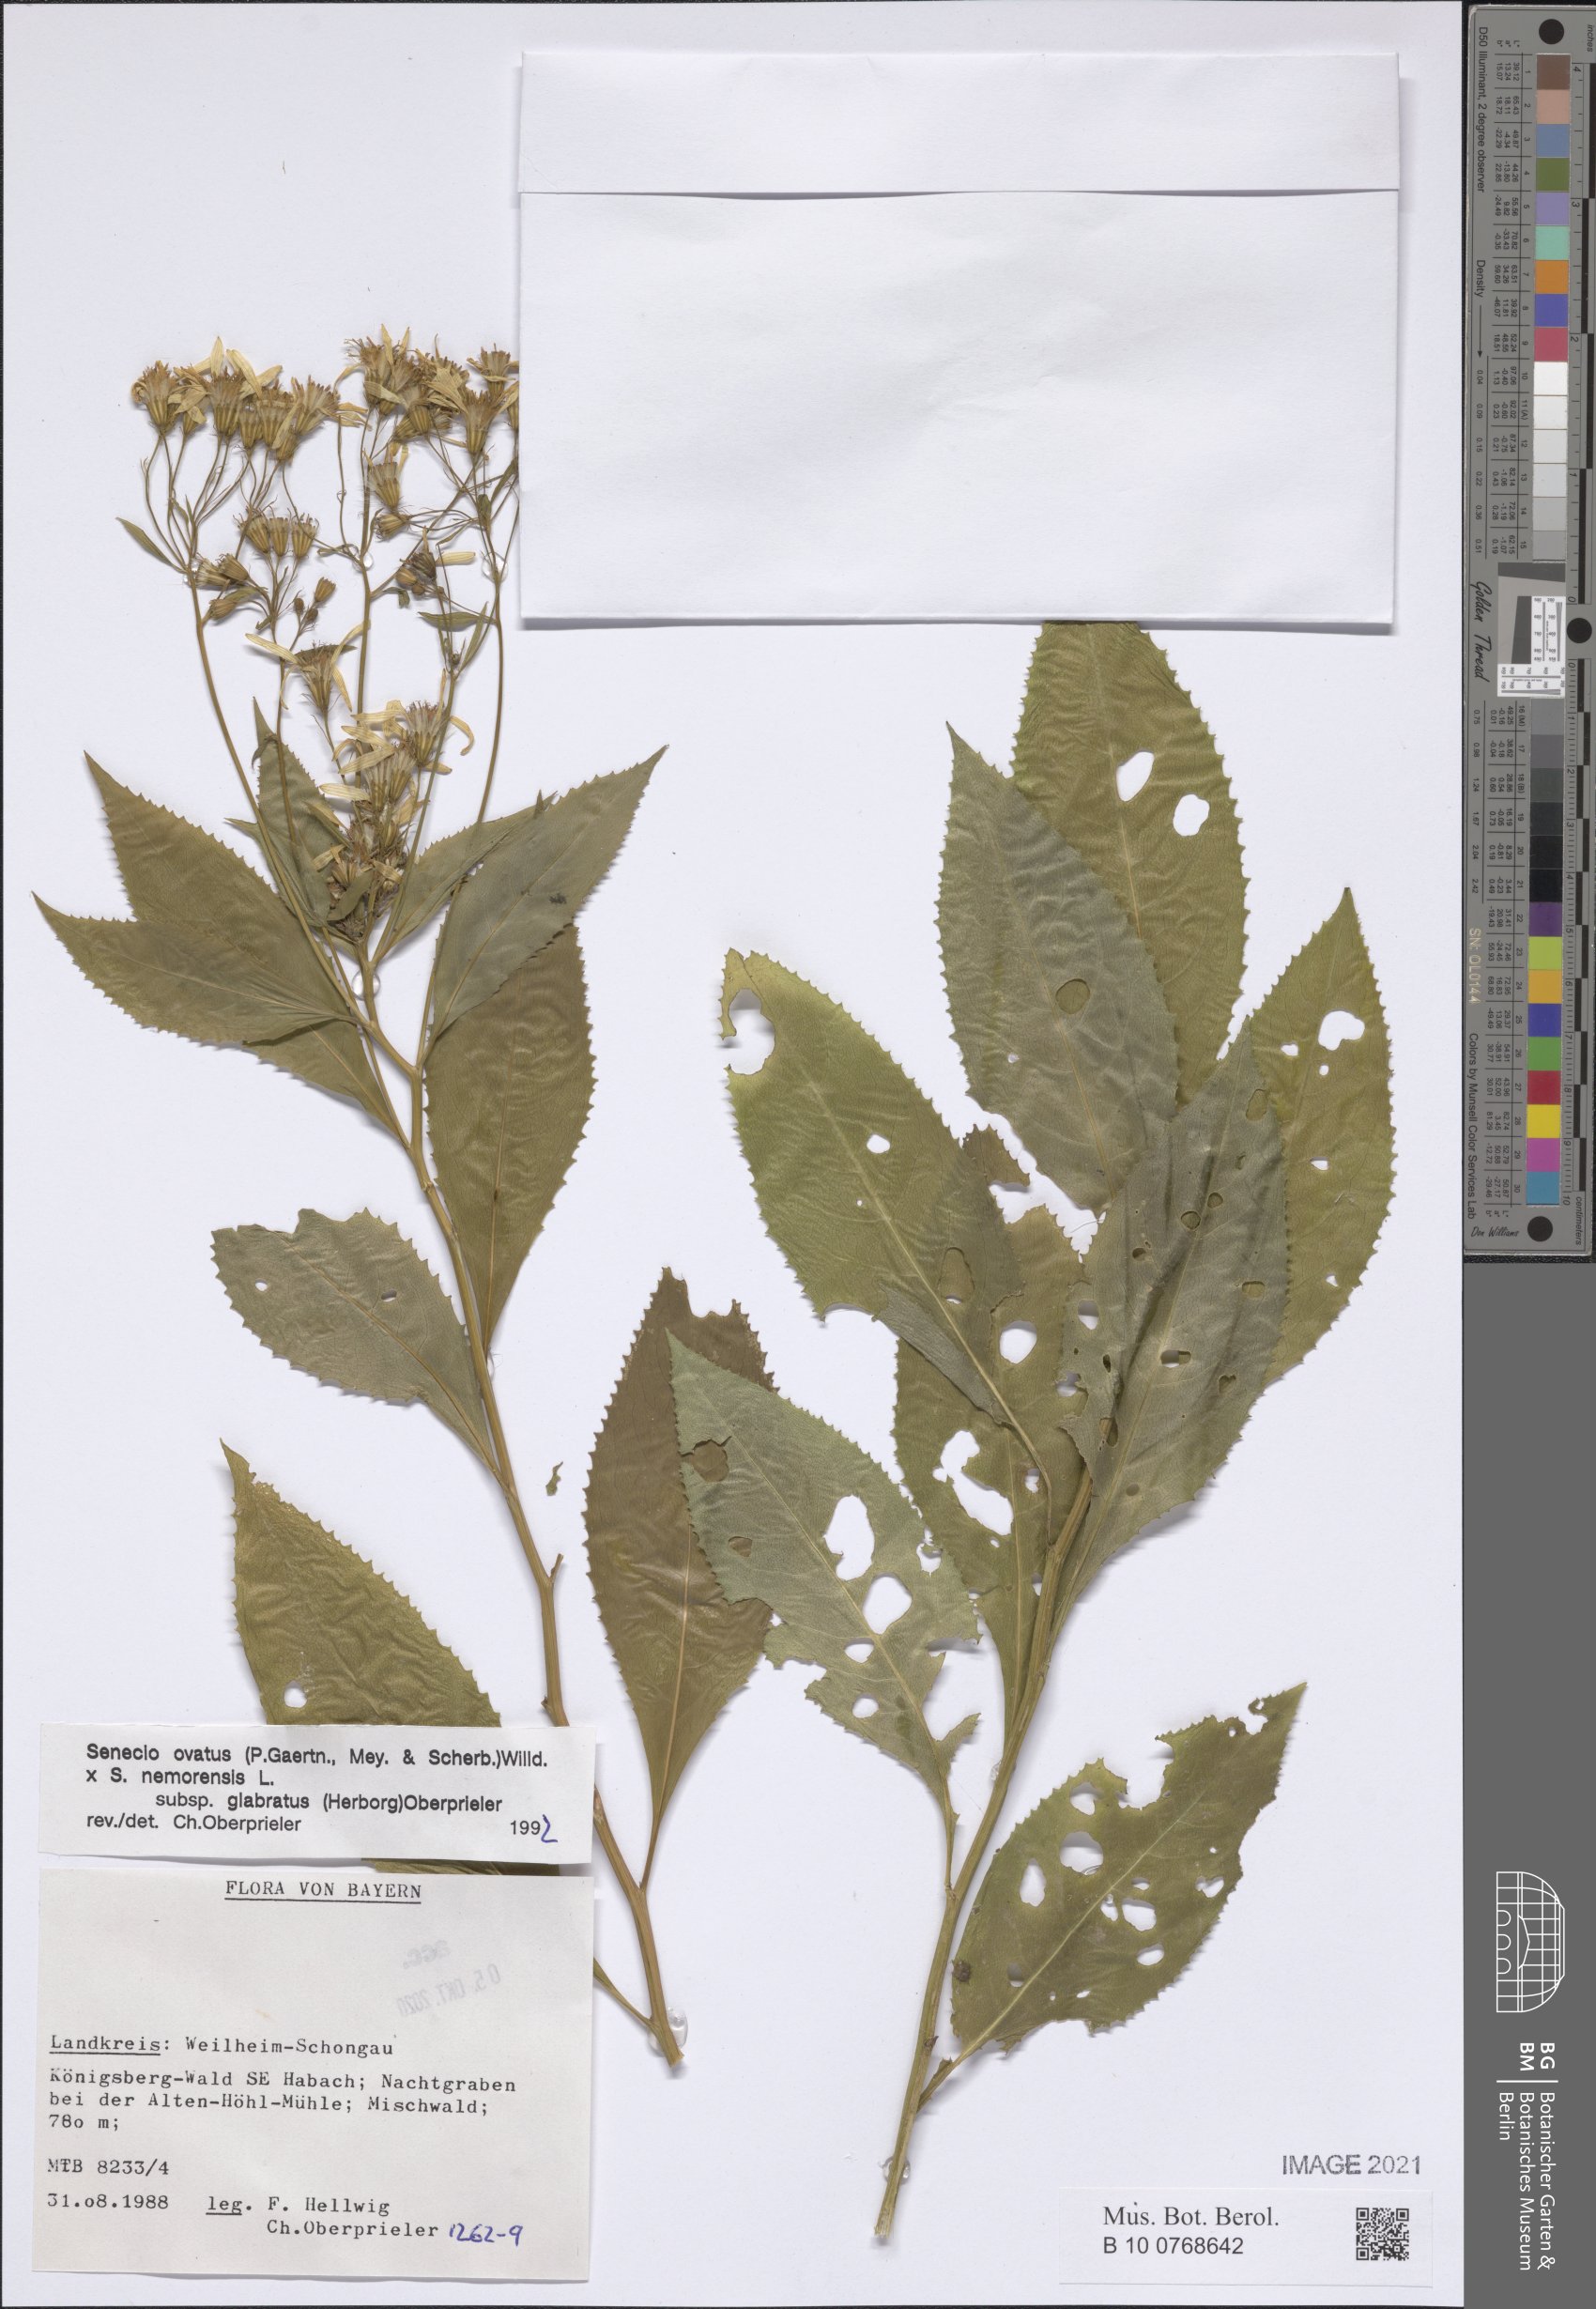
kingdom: Plantae
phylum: Tracheophyta
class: Magnoliopsida
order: Asterales
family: Asteraceae
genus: Senecio
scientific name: Senecio ovatus
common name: Wood ragwort
